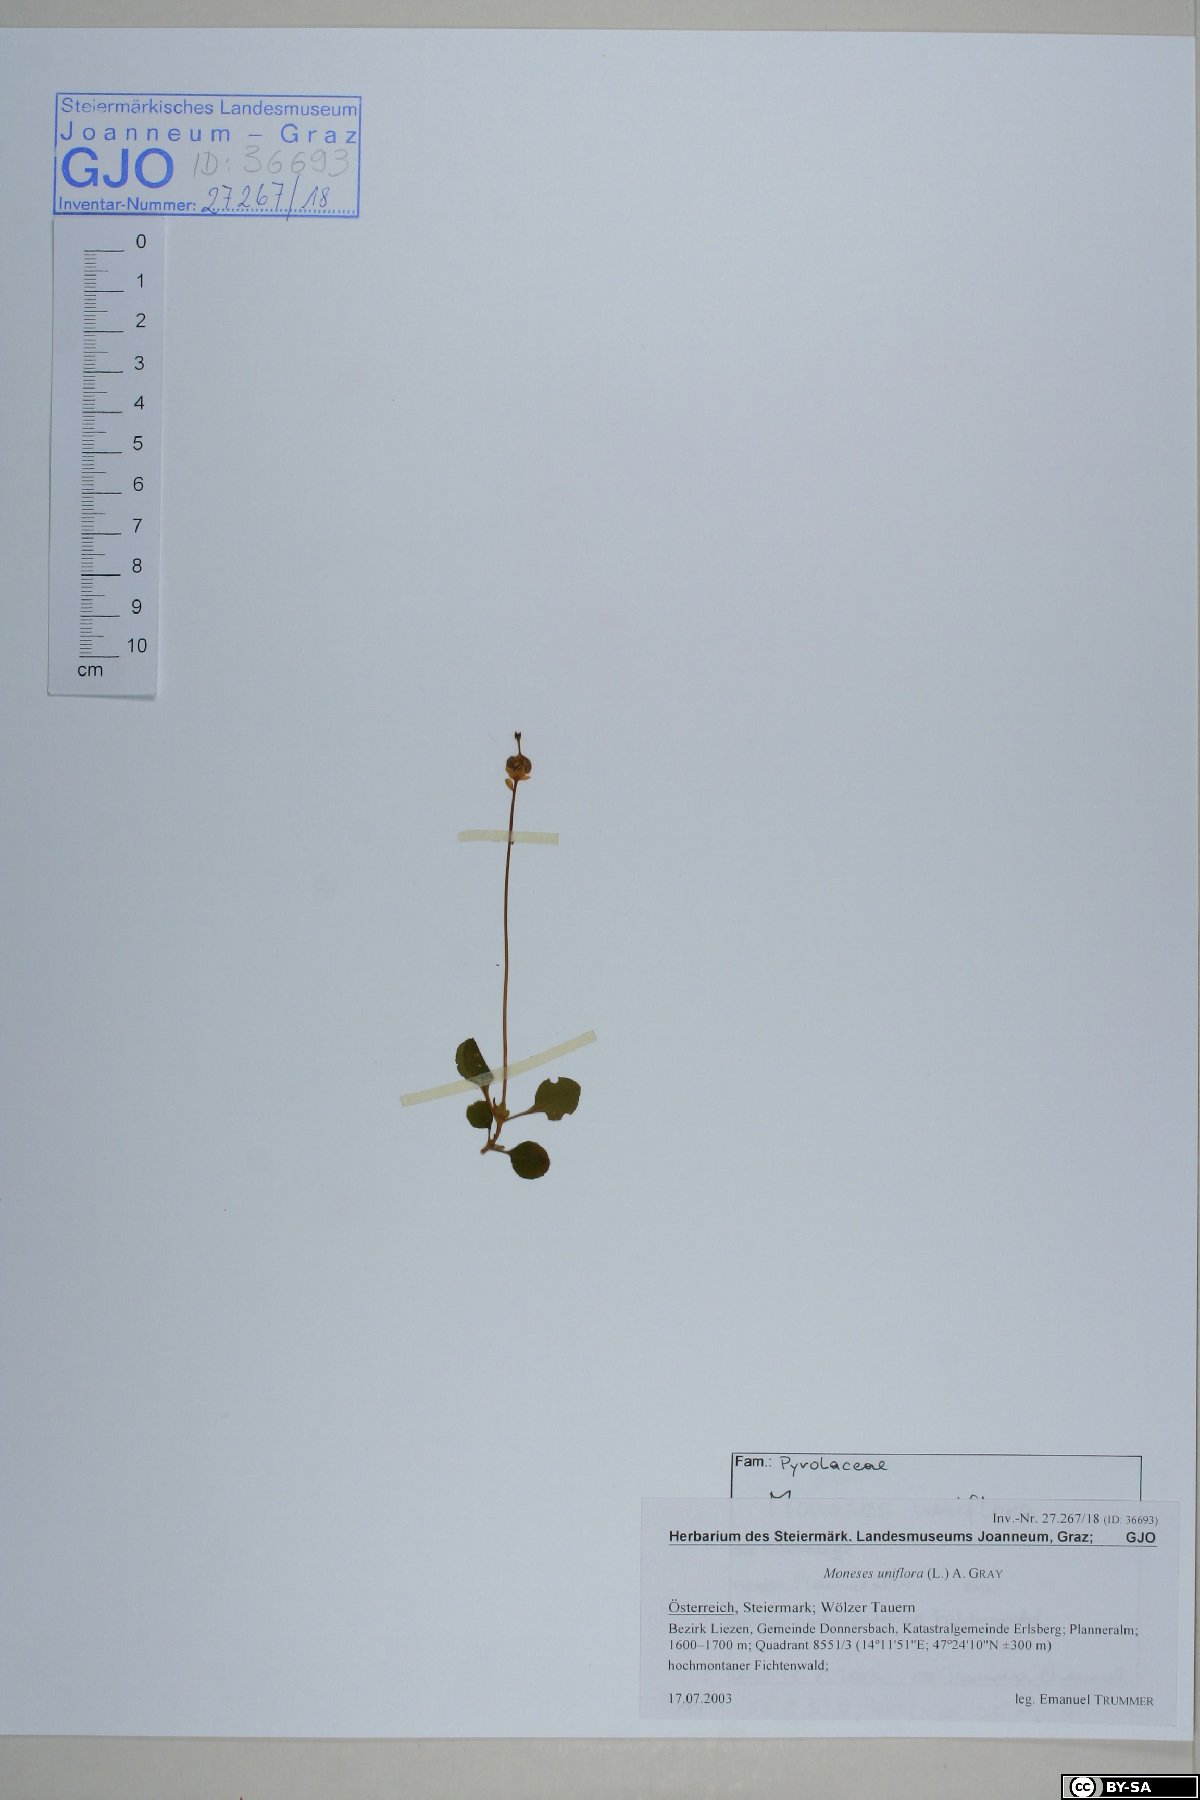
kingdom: Plantae
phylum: Tracheophyta
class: Magnoliopsida
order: Ericales
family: Ericaceae
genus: Moneses
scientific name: Moneses uniflora
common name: One-flowered wintergreen
